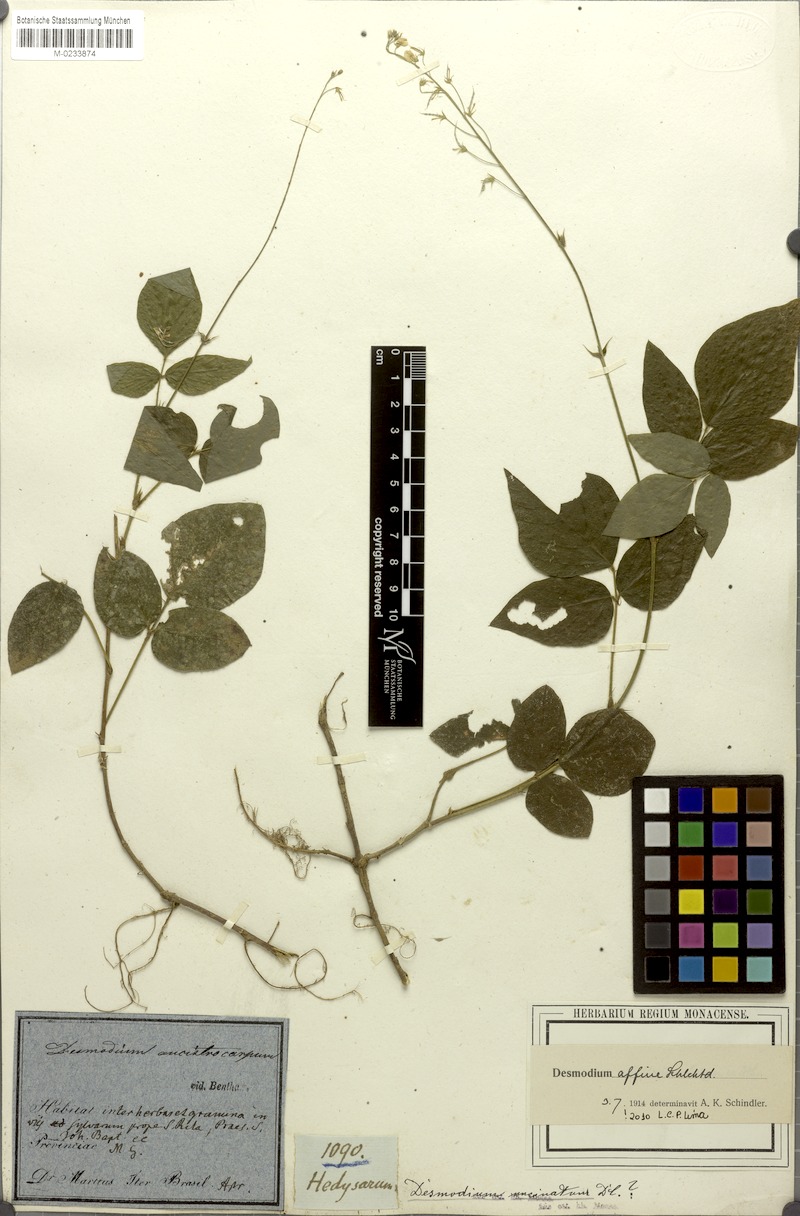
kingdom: Plantae
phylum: Tracheophyta
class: Magnoliopsida
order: Fabales
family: Fabaceae
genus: Desmodium
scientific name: Desmodium affine
